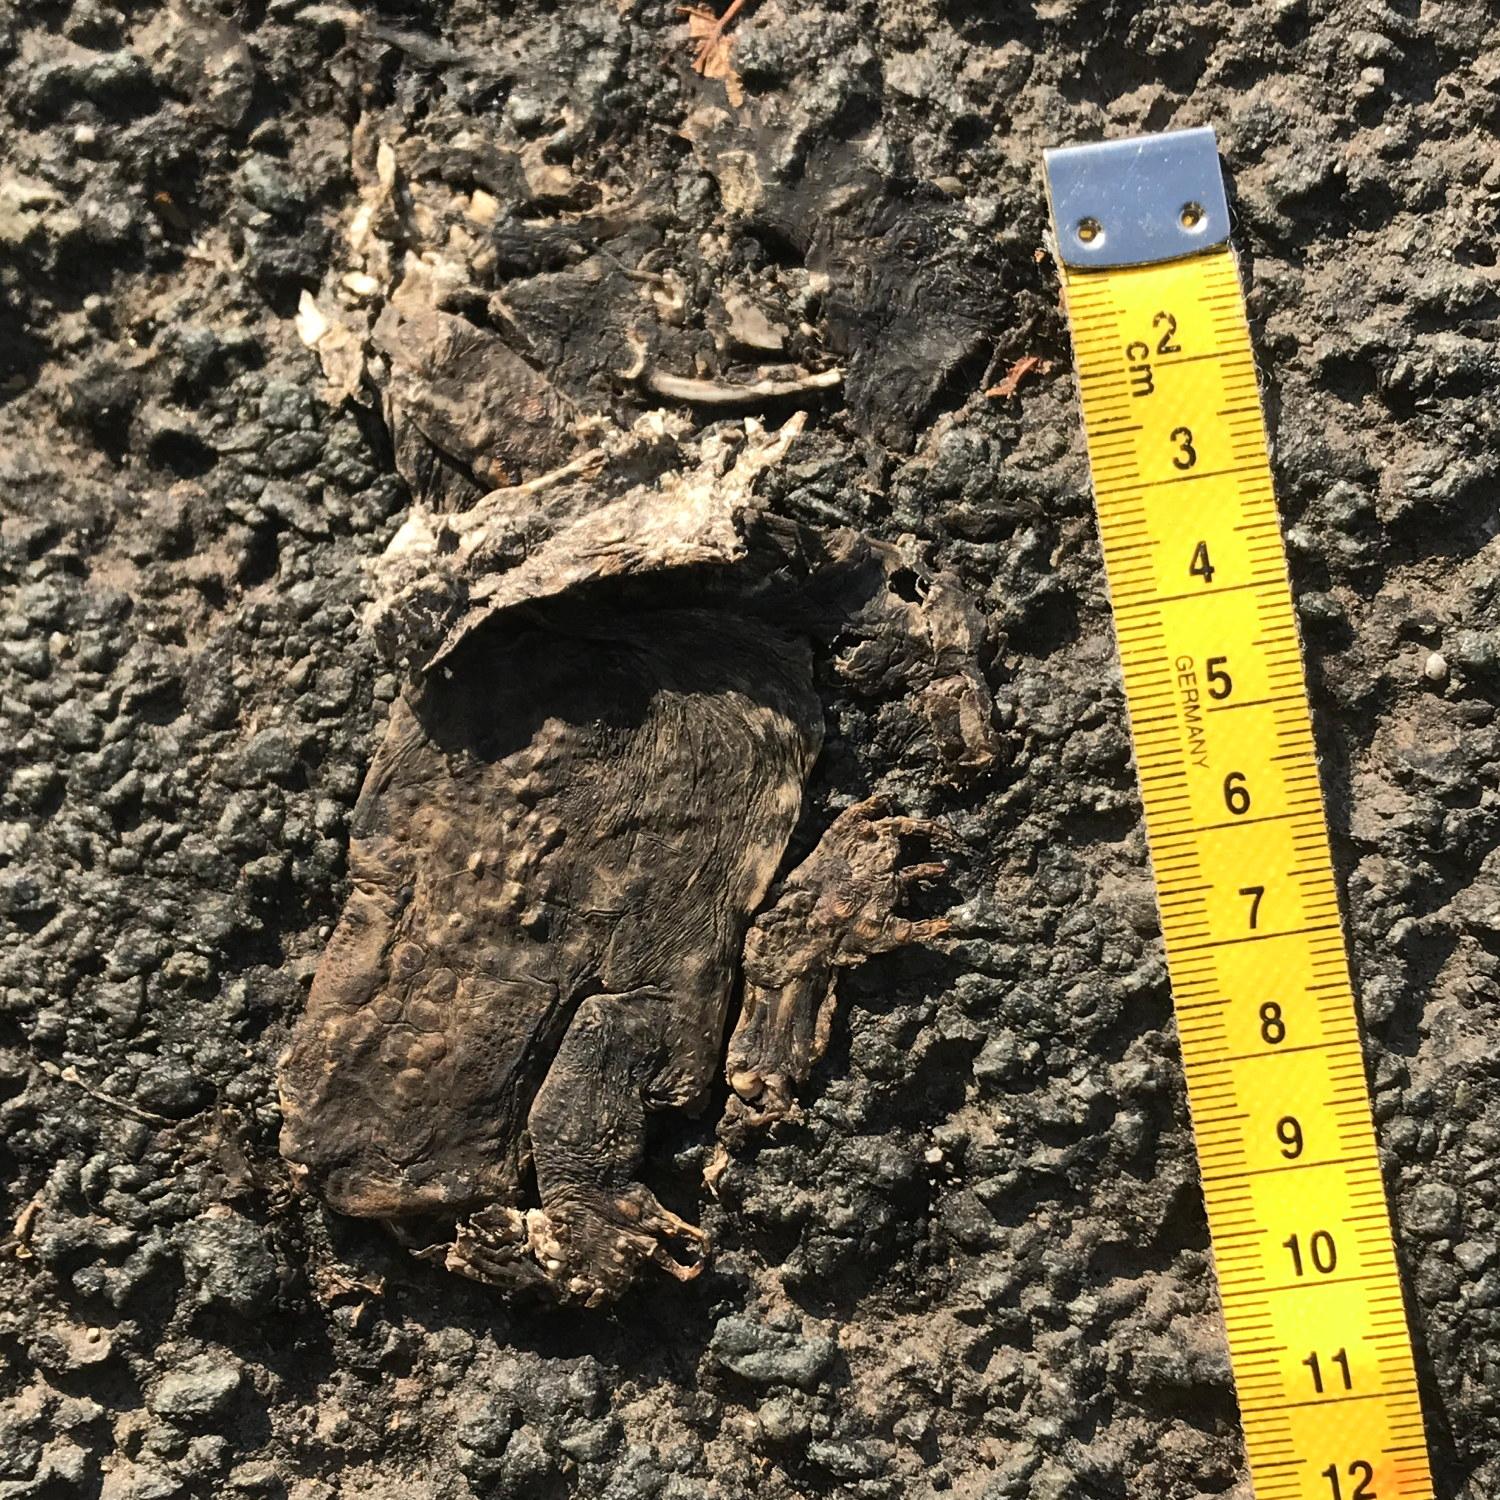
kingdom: Animalia
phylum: Chordata
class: Amphibia
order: Anura
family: Bufonidae
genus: Bufo
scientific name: Bufo bufo
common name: Common toad
